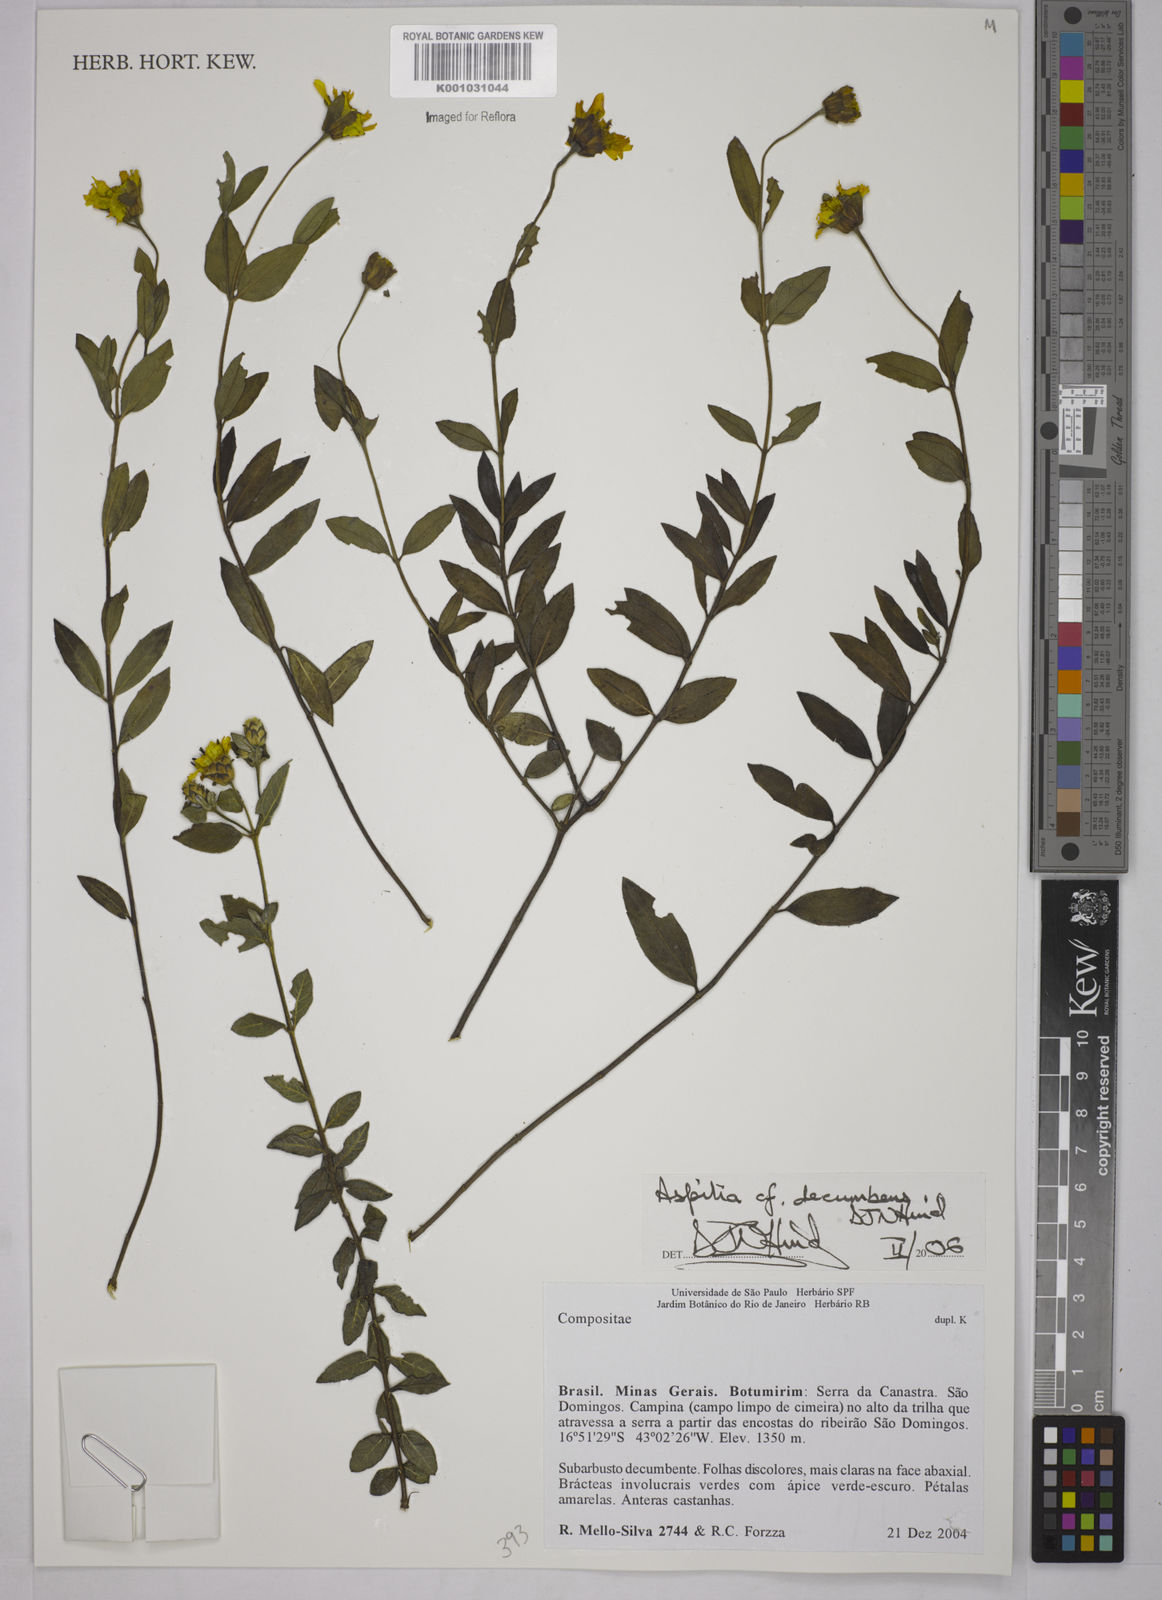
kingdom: Plantae
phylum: Tracheophyta
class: Magnoliopsida
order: Asterales
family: Asteraceae
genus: Wedelia
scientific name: Wedelia subalpestris
